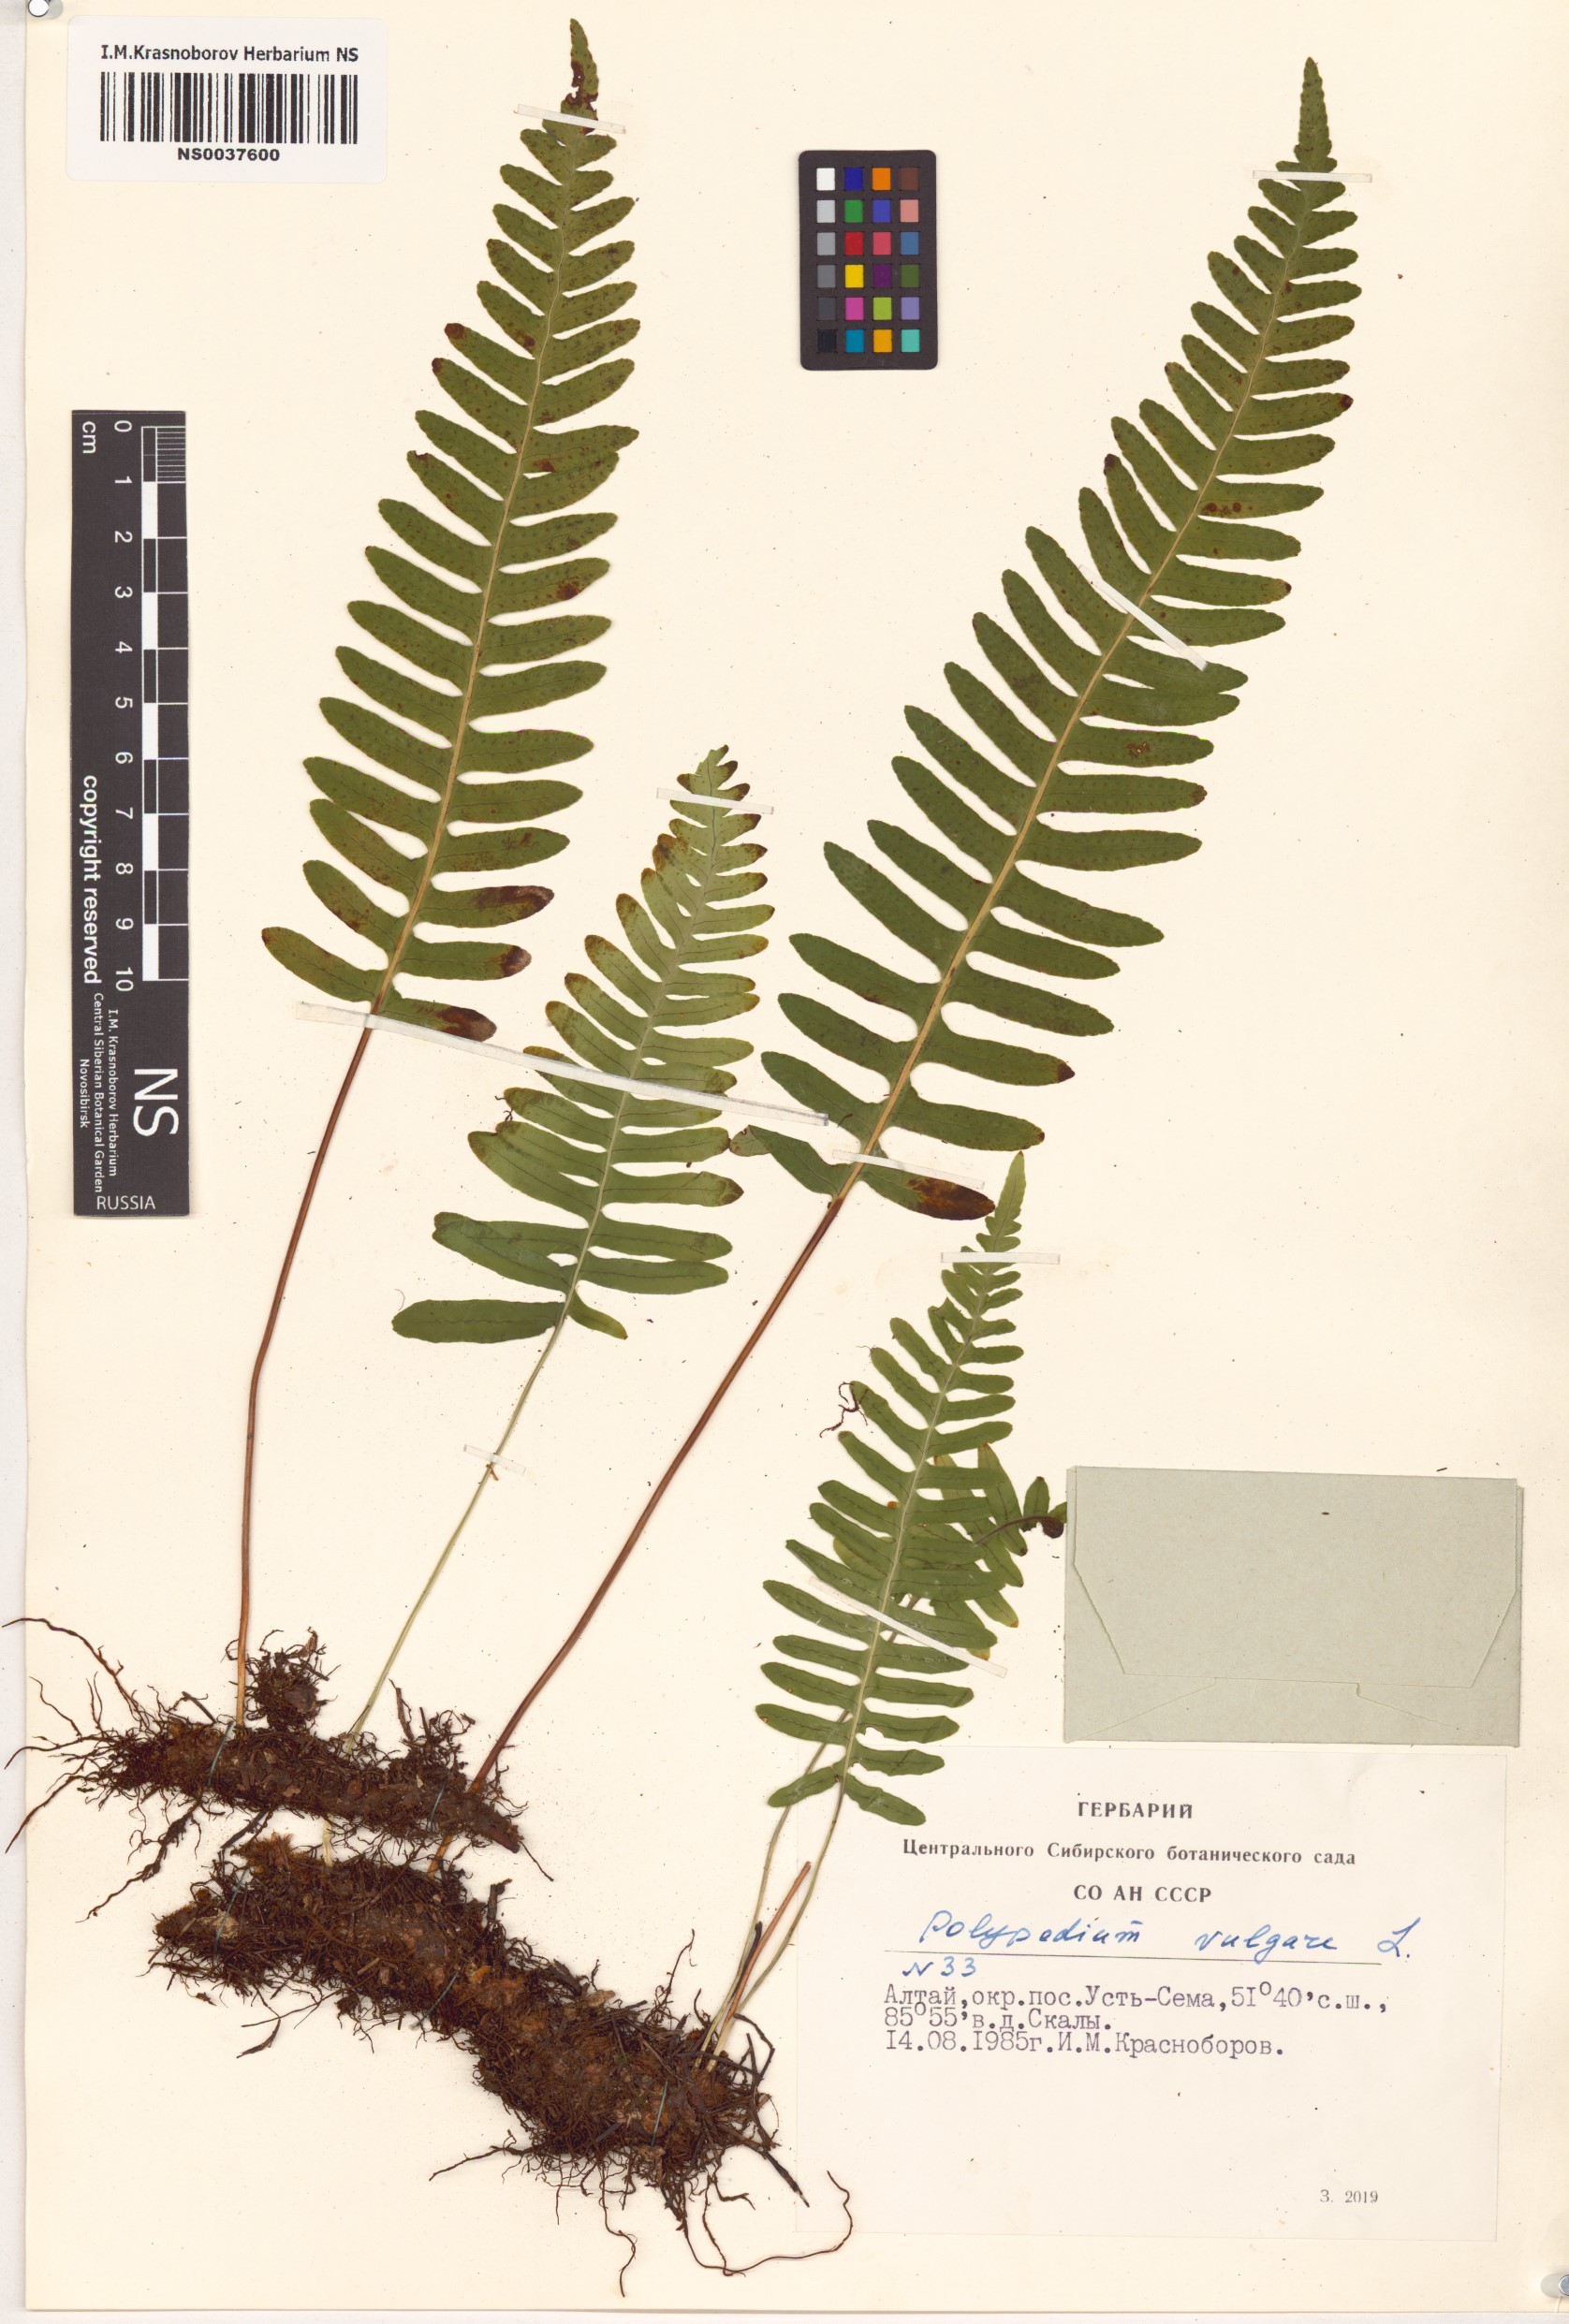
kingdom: Plantae
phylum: Tracheophyta
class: Polypodiopsida
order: Polypodiales
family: Polypodiaceae
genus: Polypodium
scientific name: Polypodium vulgare
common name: Common polypody
